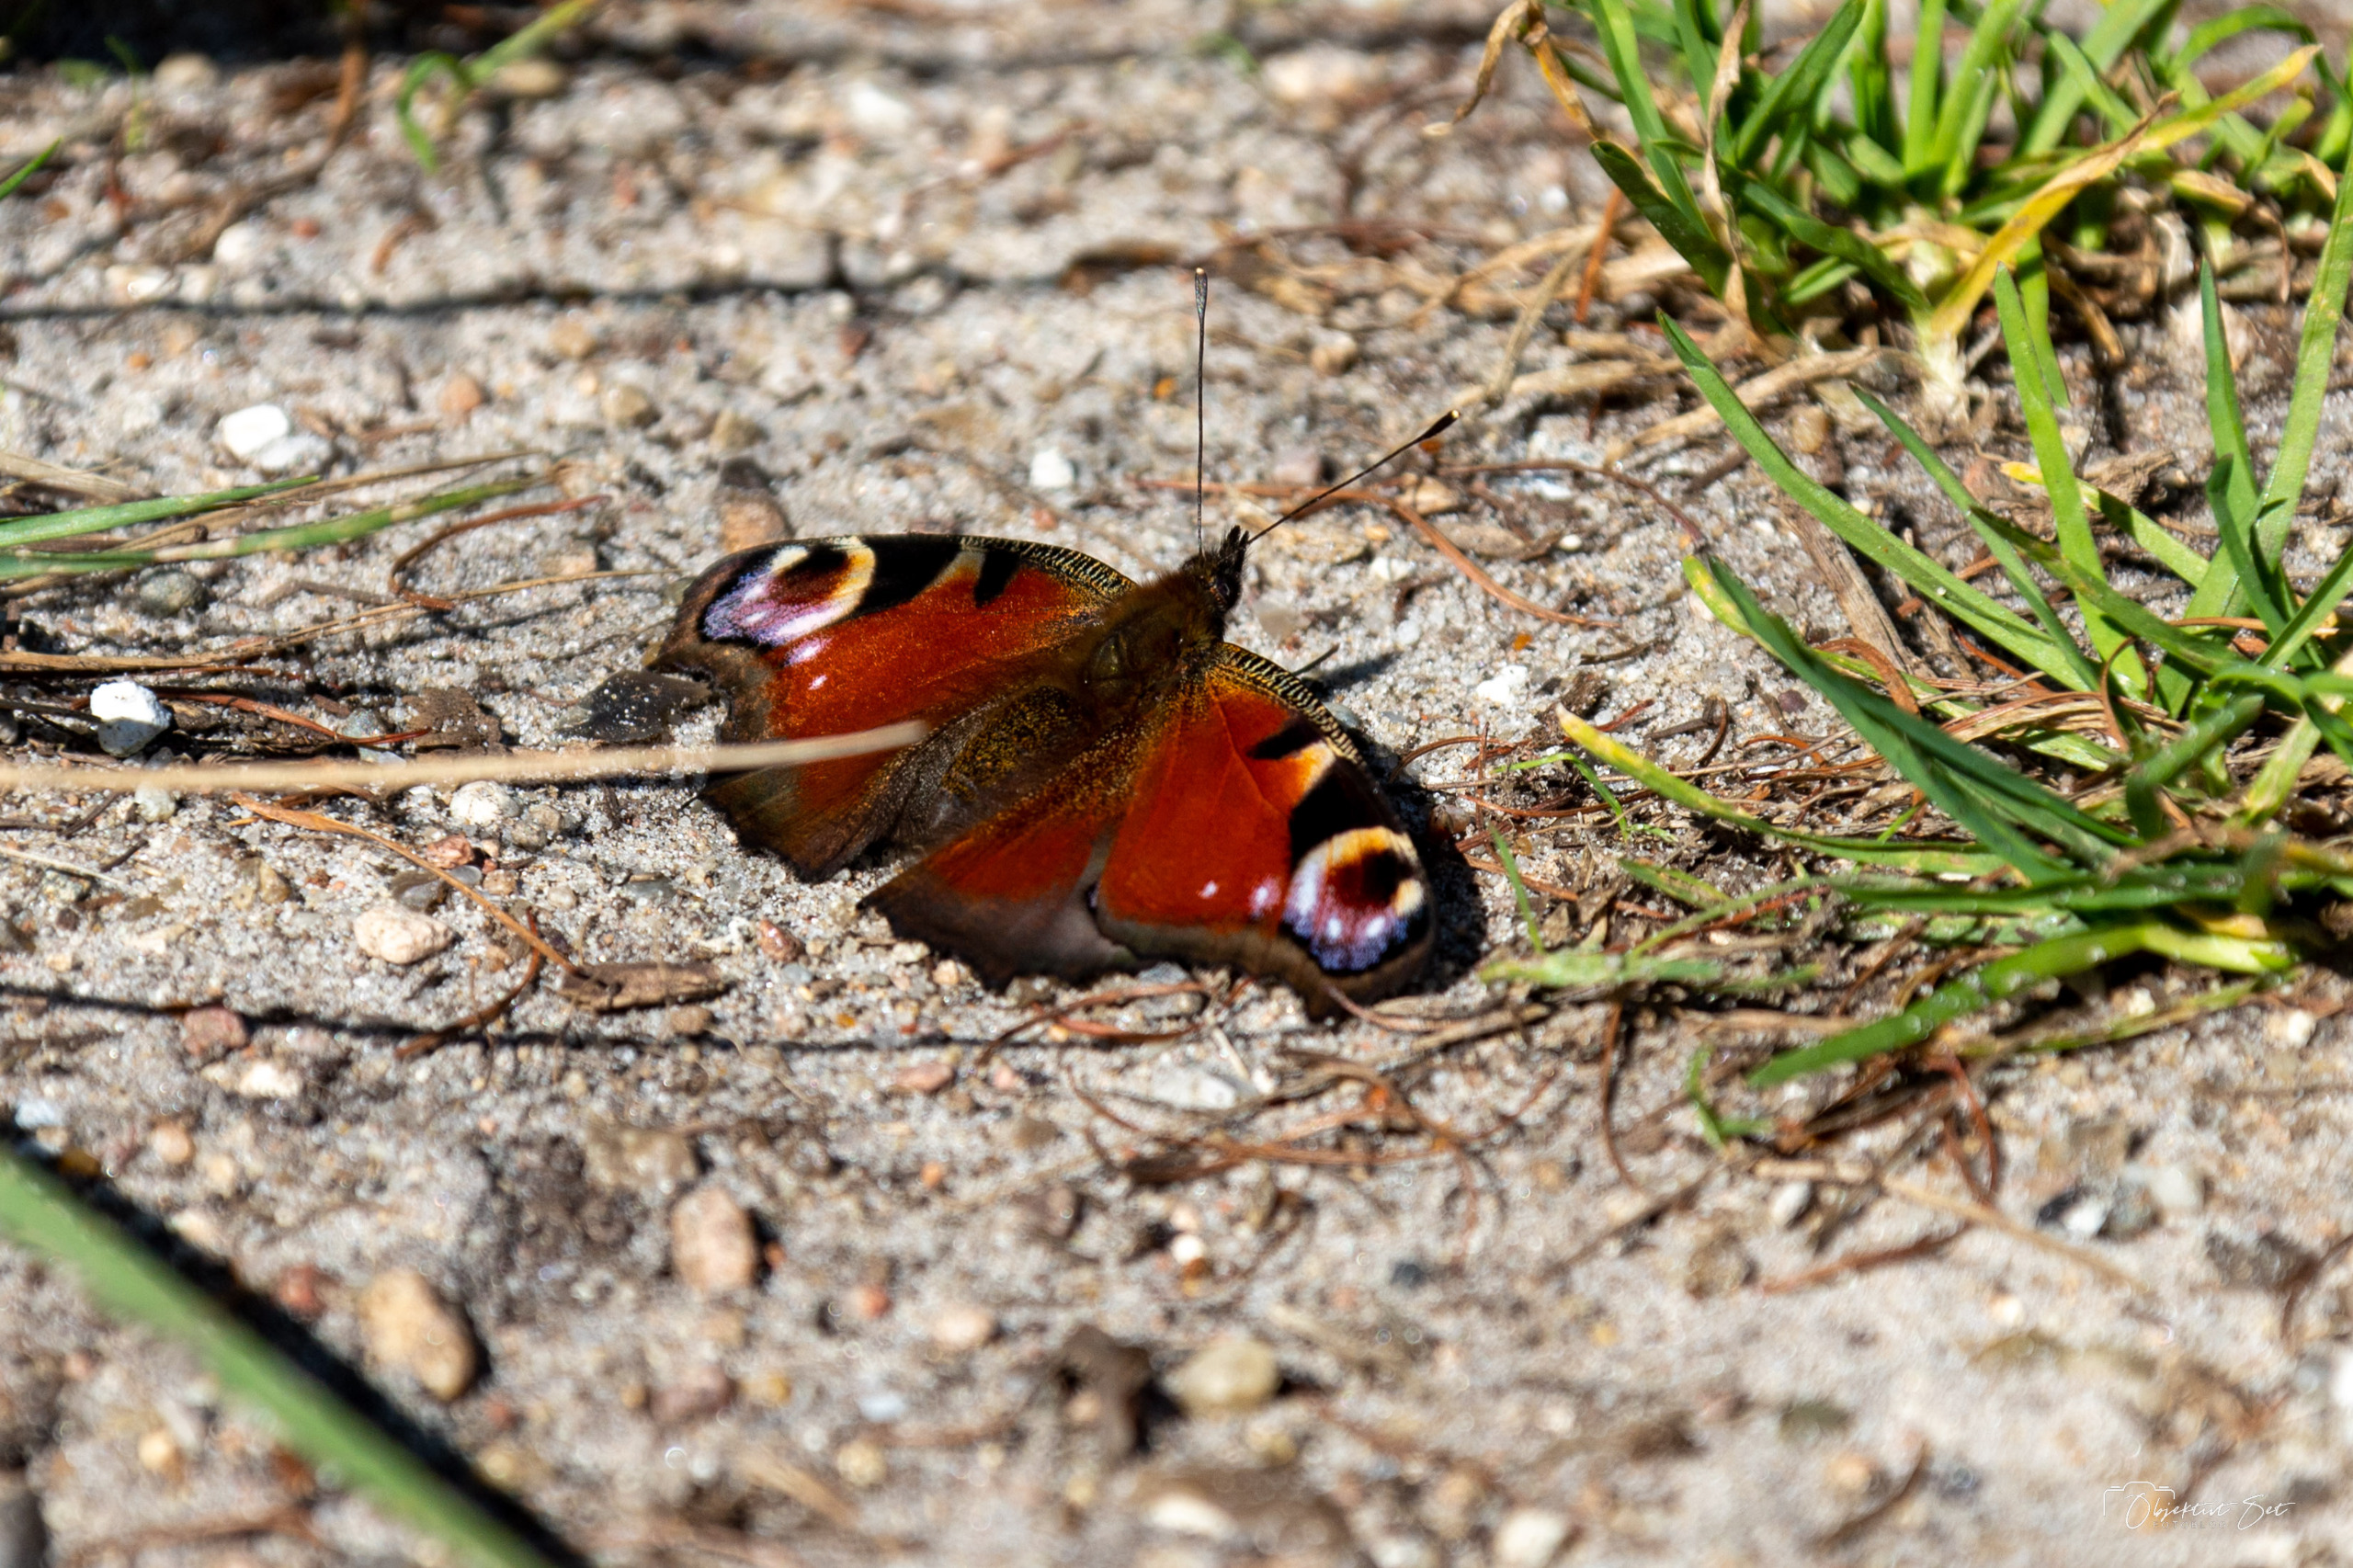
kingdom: Animalia
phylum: Arthropoda
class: Insecta
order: Lepidoptera
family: Nymphalidae
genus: Aglais
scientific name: Aglais io
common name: Dagpåfugleøje
